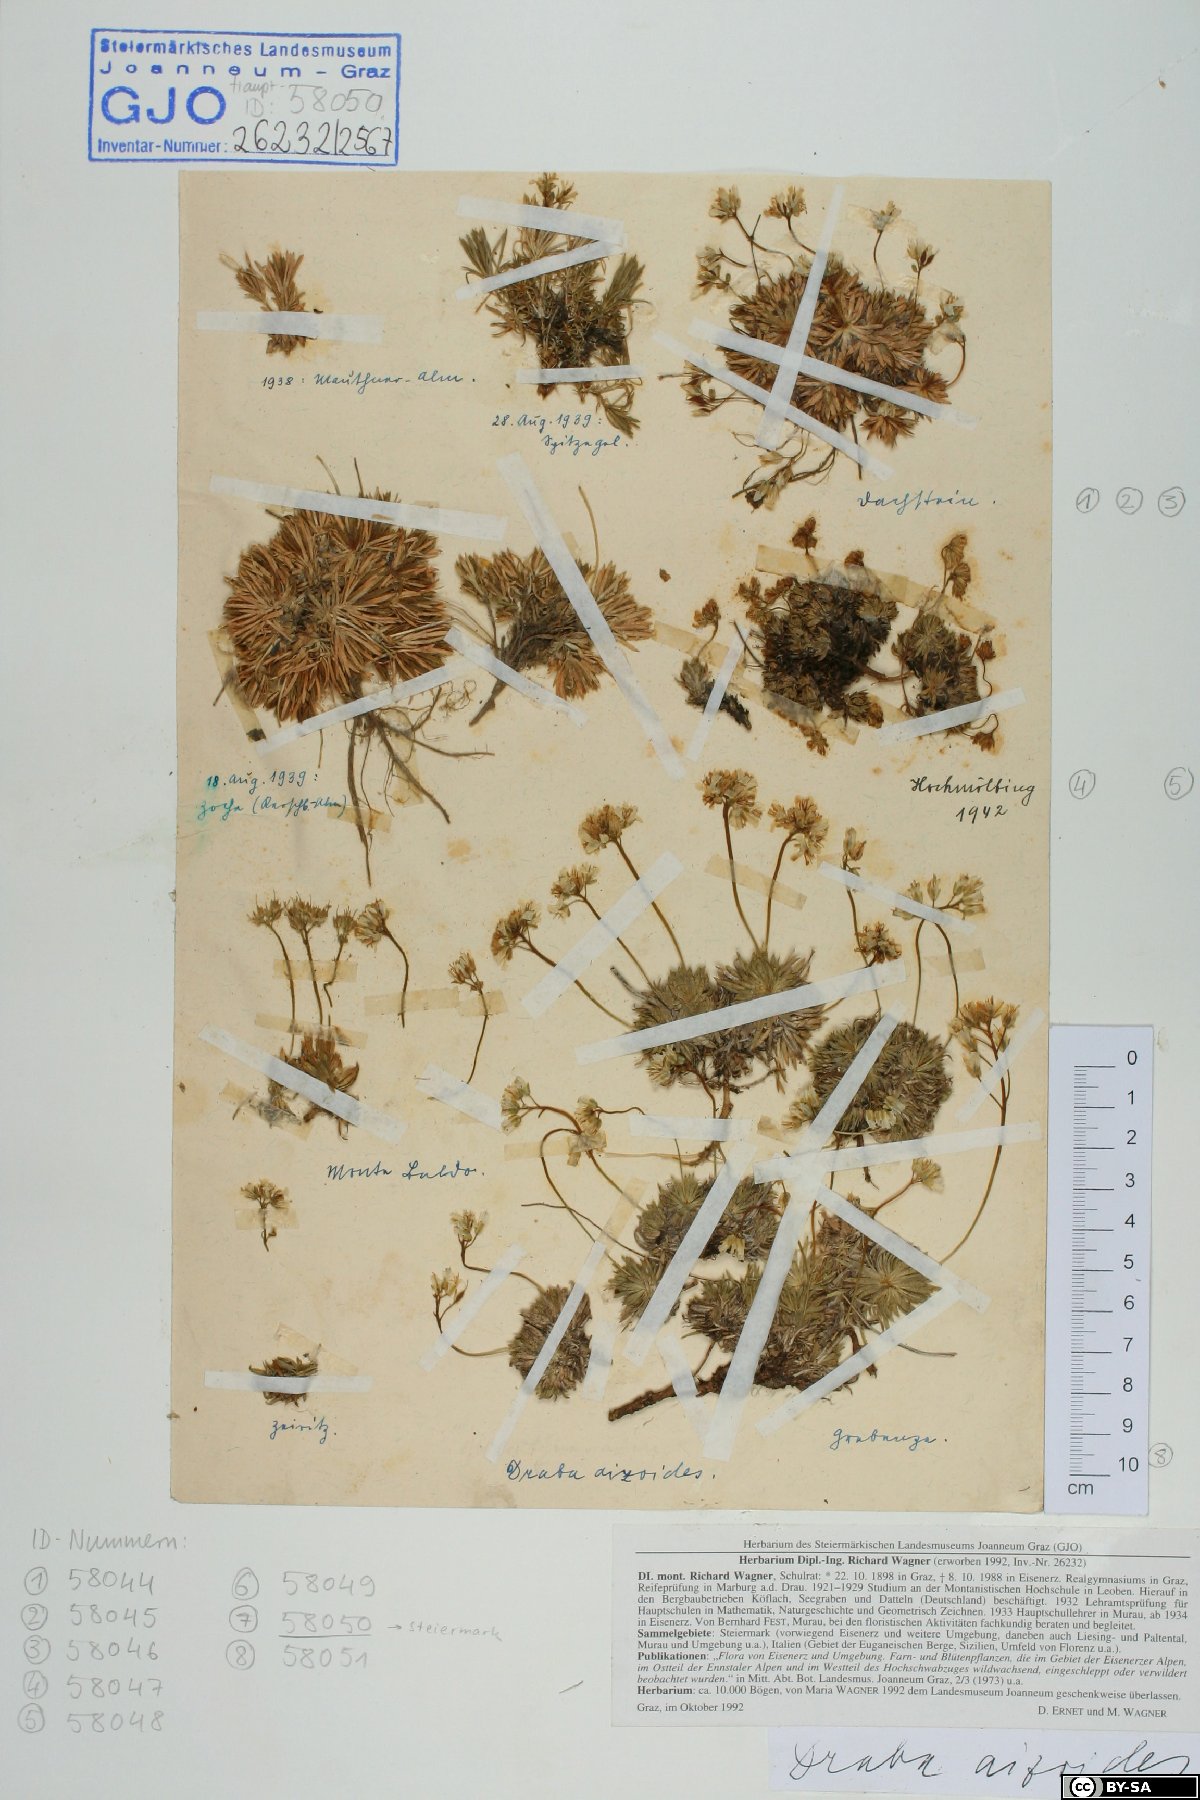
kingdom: Plantae
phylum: Tracheophyta
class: Magnoliopsida
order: Brassicales
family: Brassicaceae
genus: Draba
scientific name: Draba aizoides
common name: Yellow whitlowgrass
